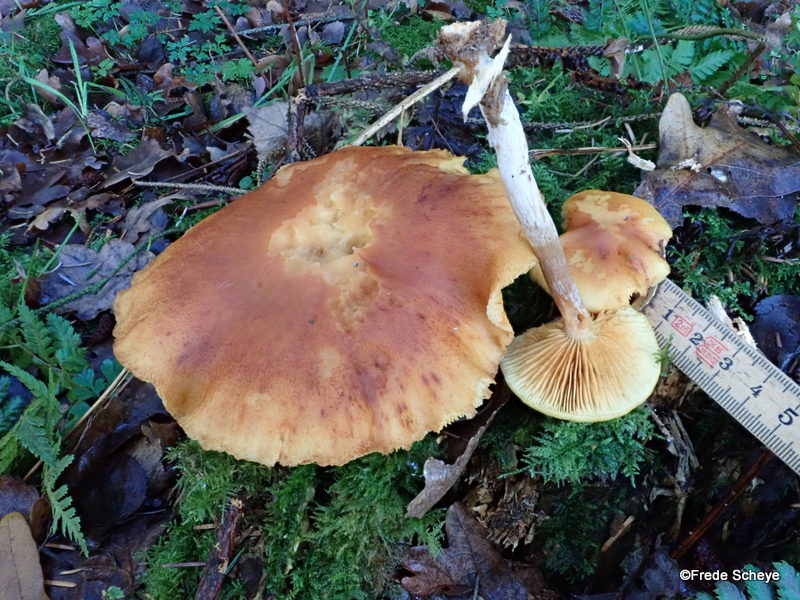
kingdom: Fungi
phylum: Basidiomycota
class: Agaricomycetes
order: Agaricales
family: Hymenogastraceae
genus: Gymnopilus
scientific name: Gymnopilus penetrans
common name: plettet flammehat
